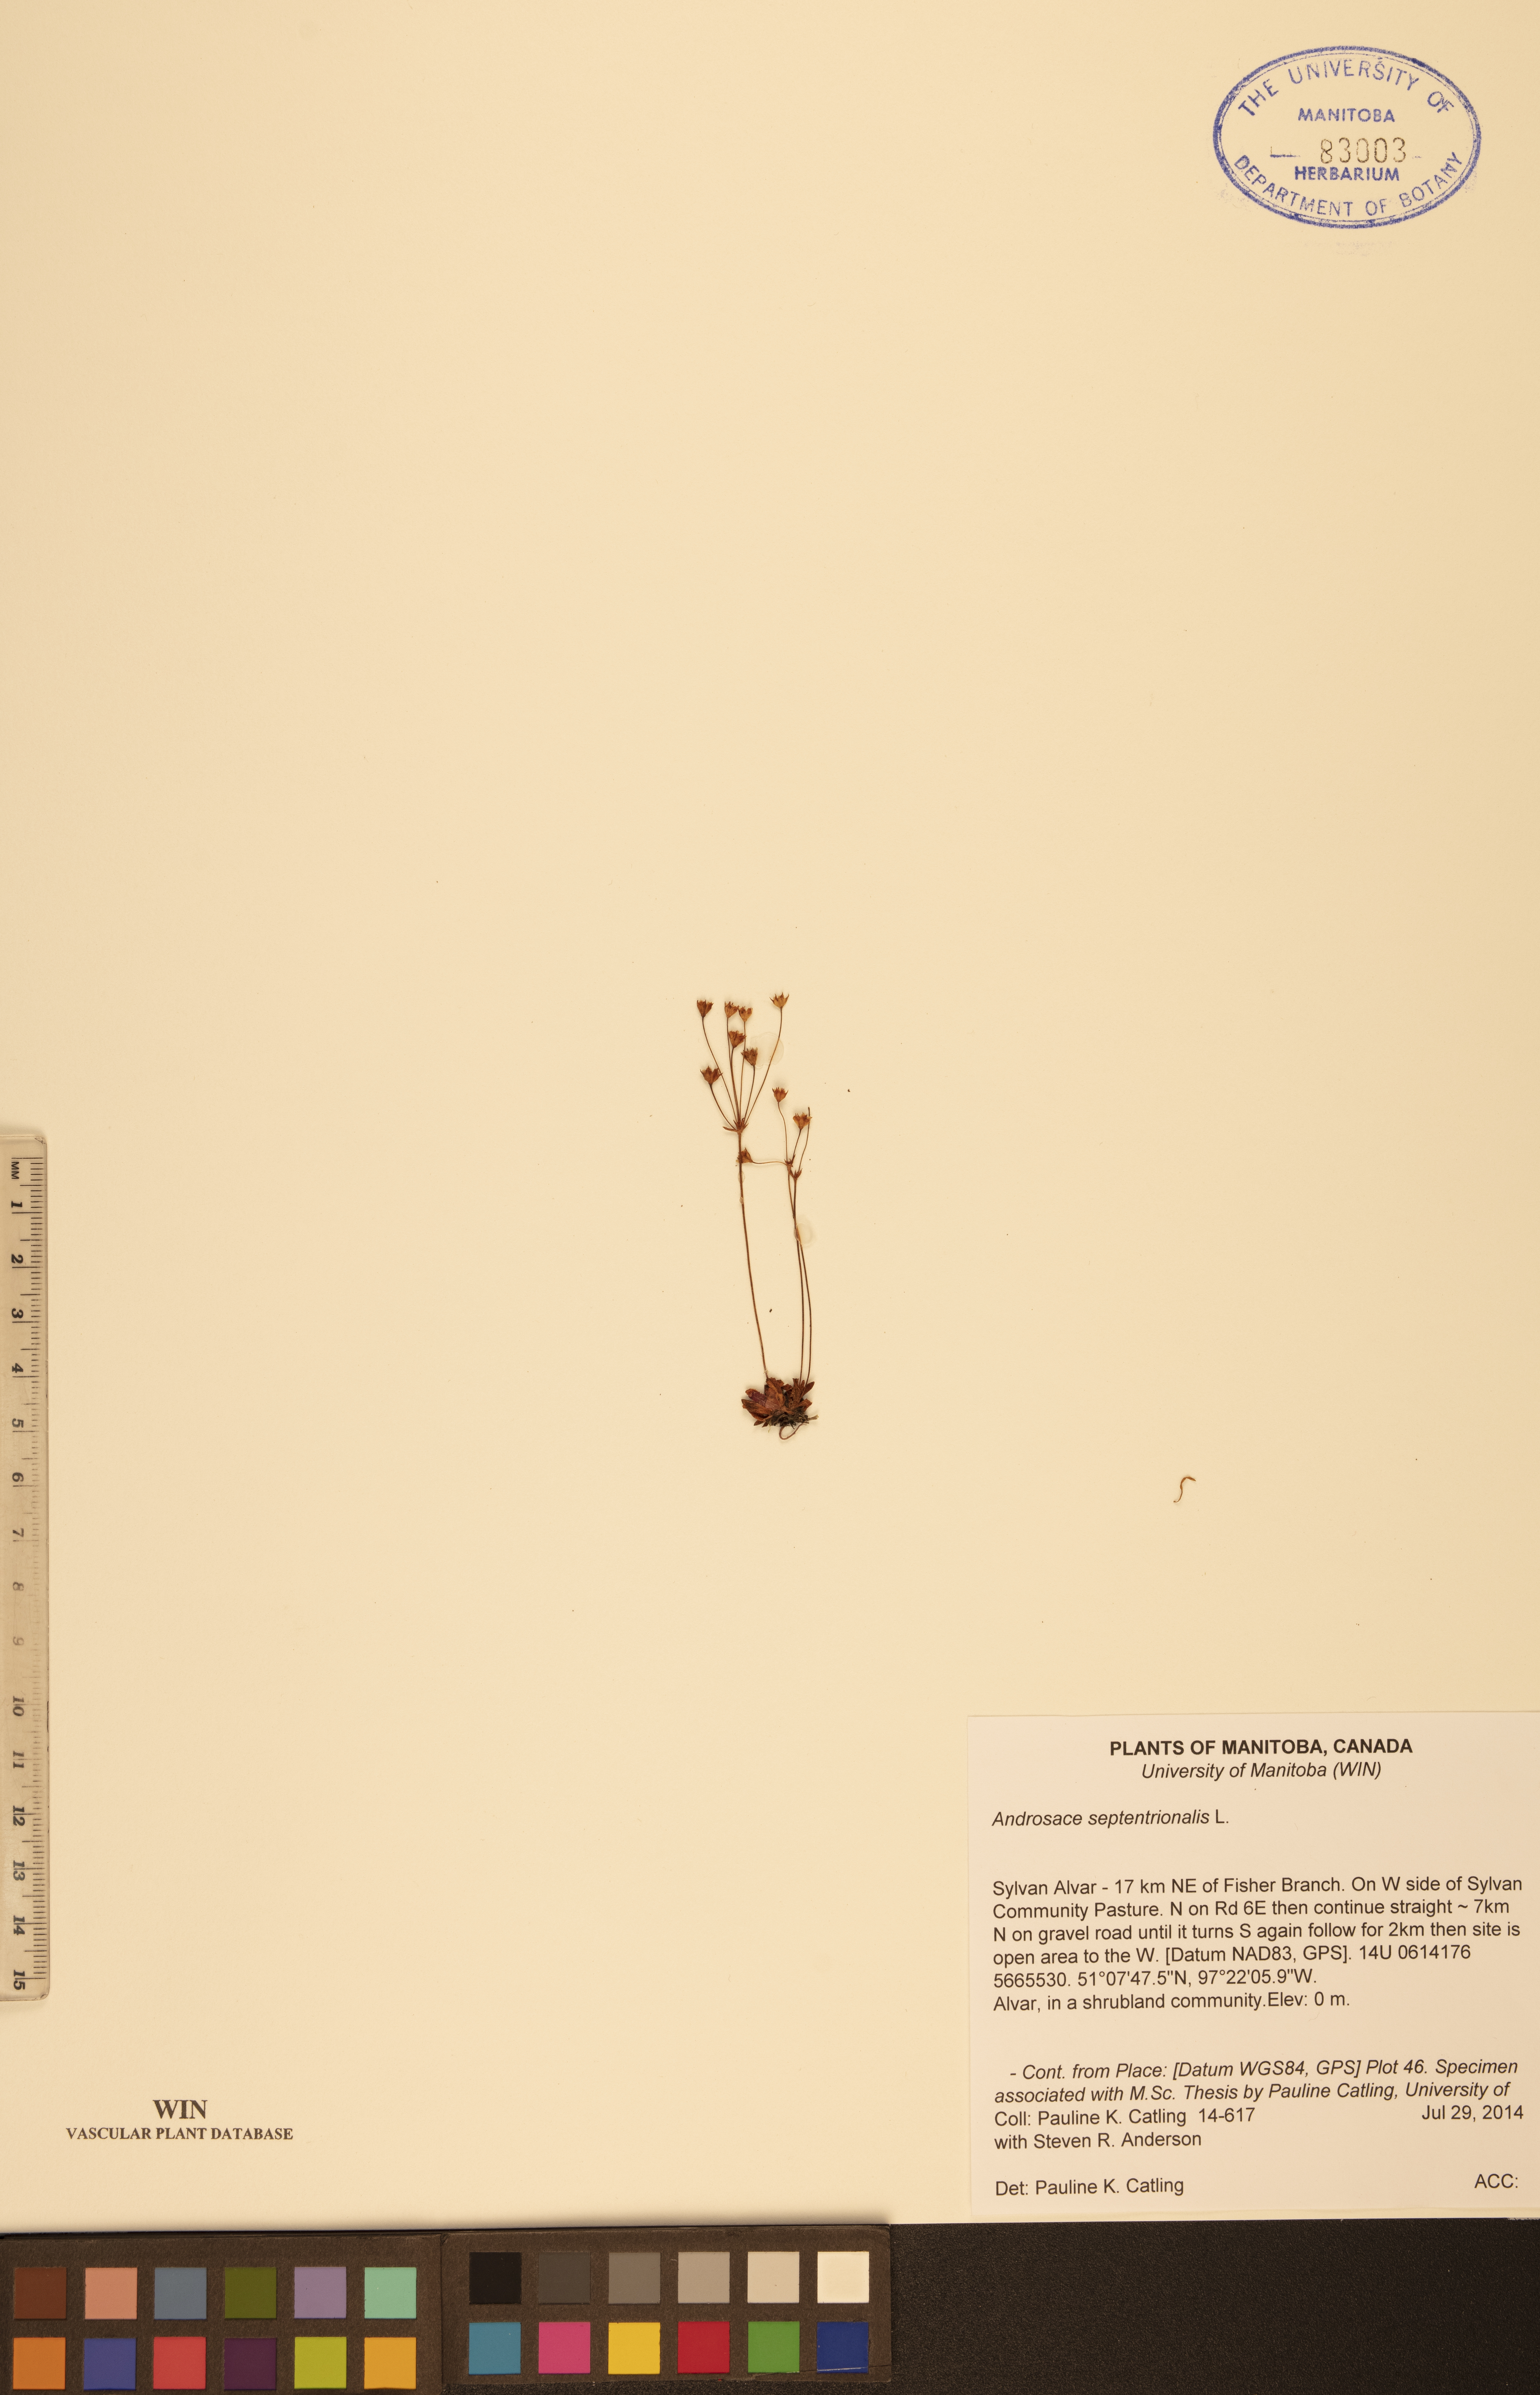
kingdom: Plantae
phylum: Tracheophyta
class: Magnoliopsida
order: Ericales
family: Primulaceae
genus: Androsace
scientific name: Androsace septentrionalis
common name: Hairy northern fairy-candelabra
